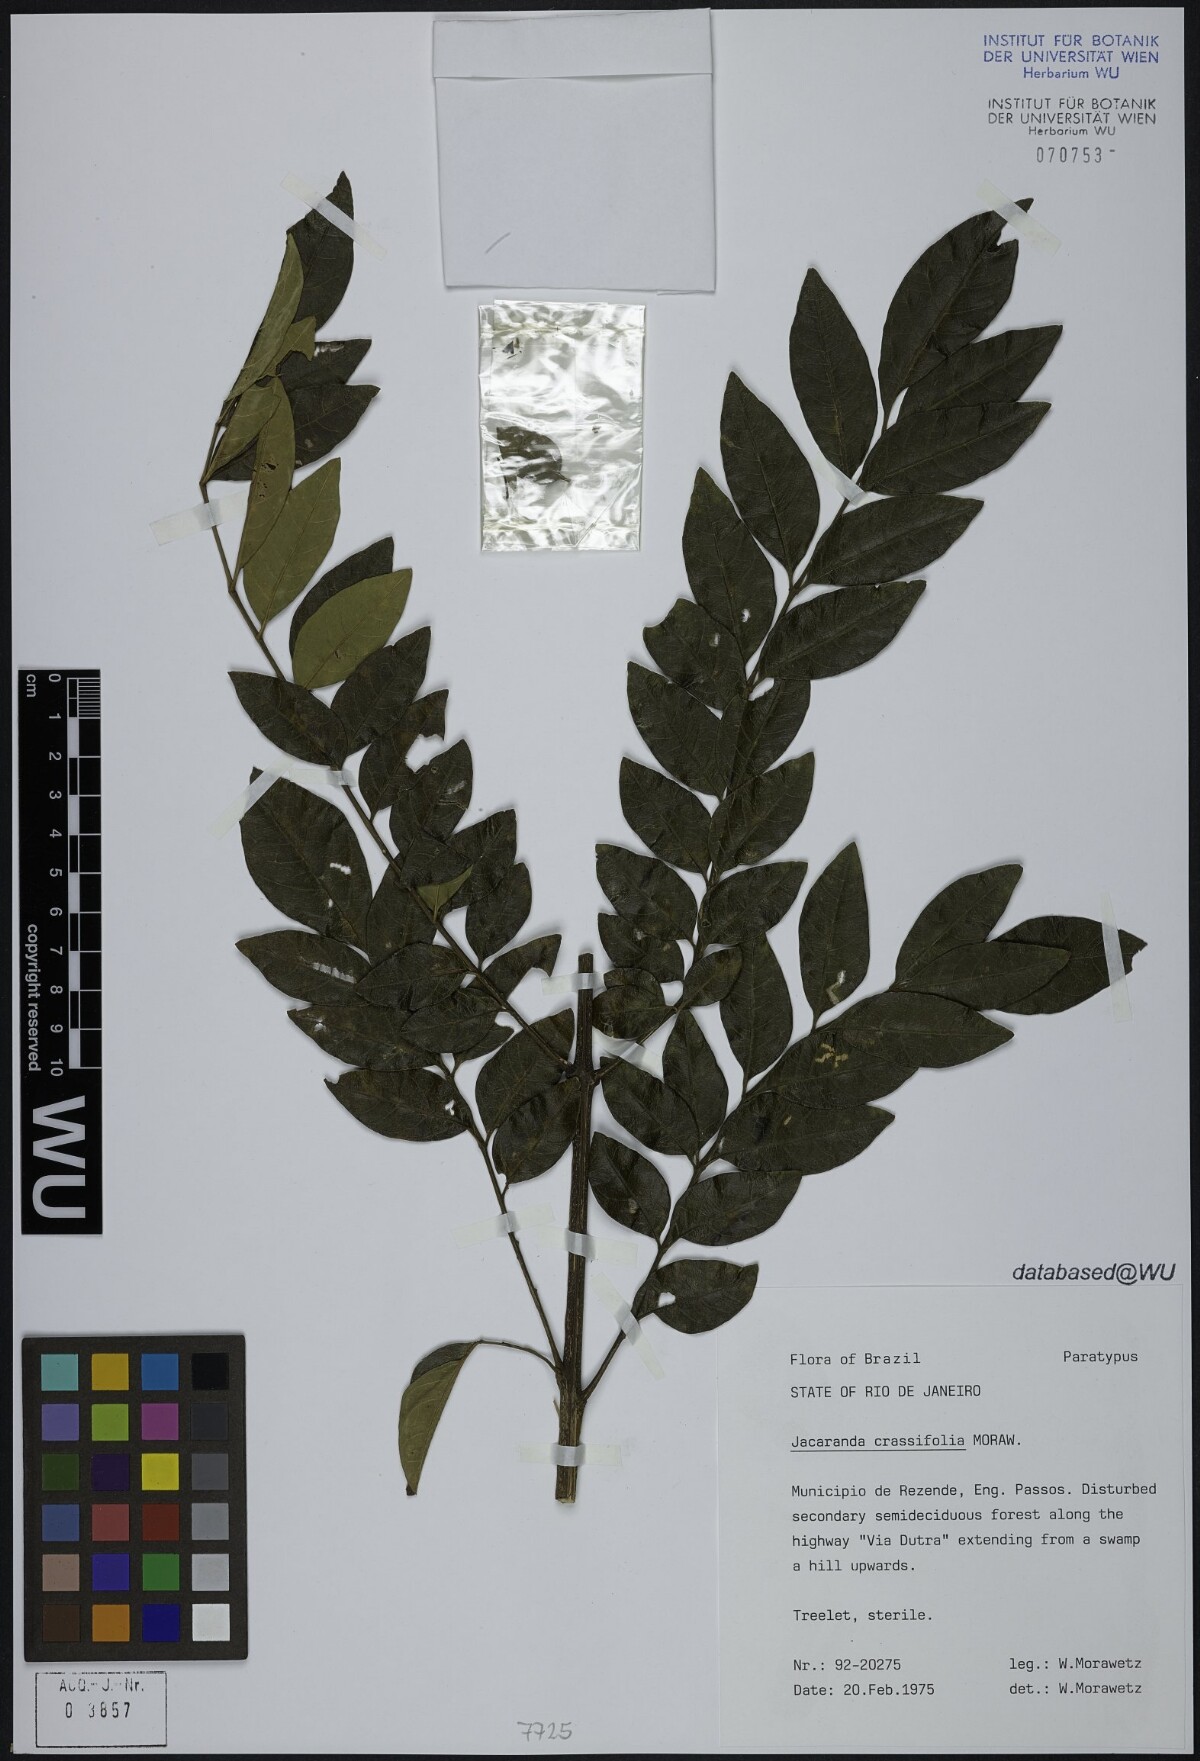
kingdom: Plantae
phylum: Tracheophyta
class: Magnoliopsida
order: Lamiales
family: Bignoniaceae
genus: Jacaranda
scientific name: Jacaranda crassifolia
